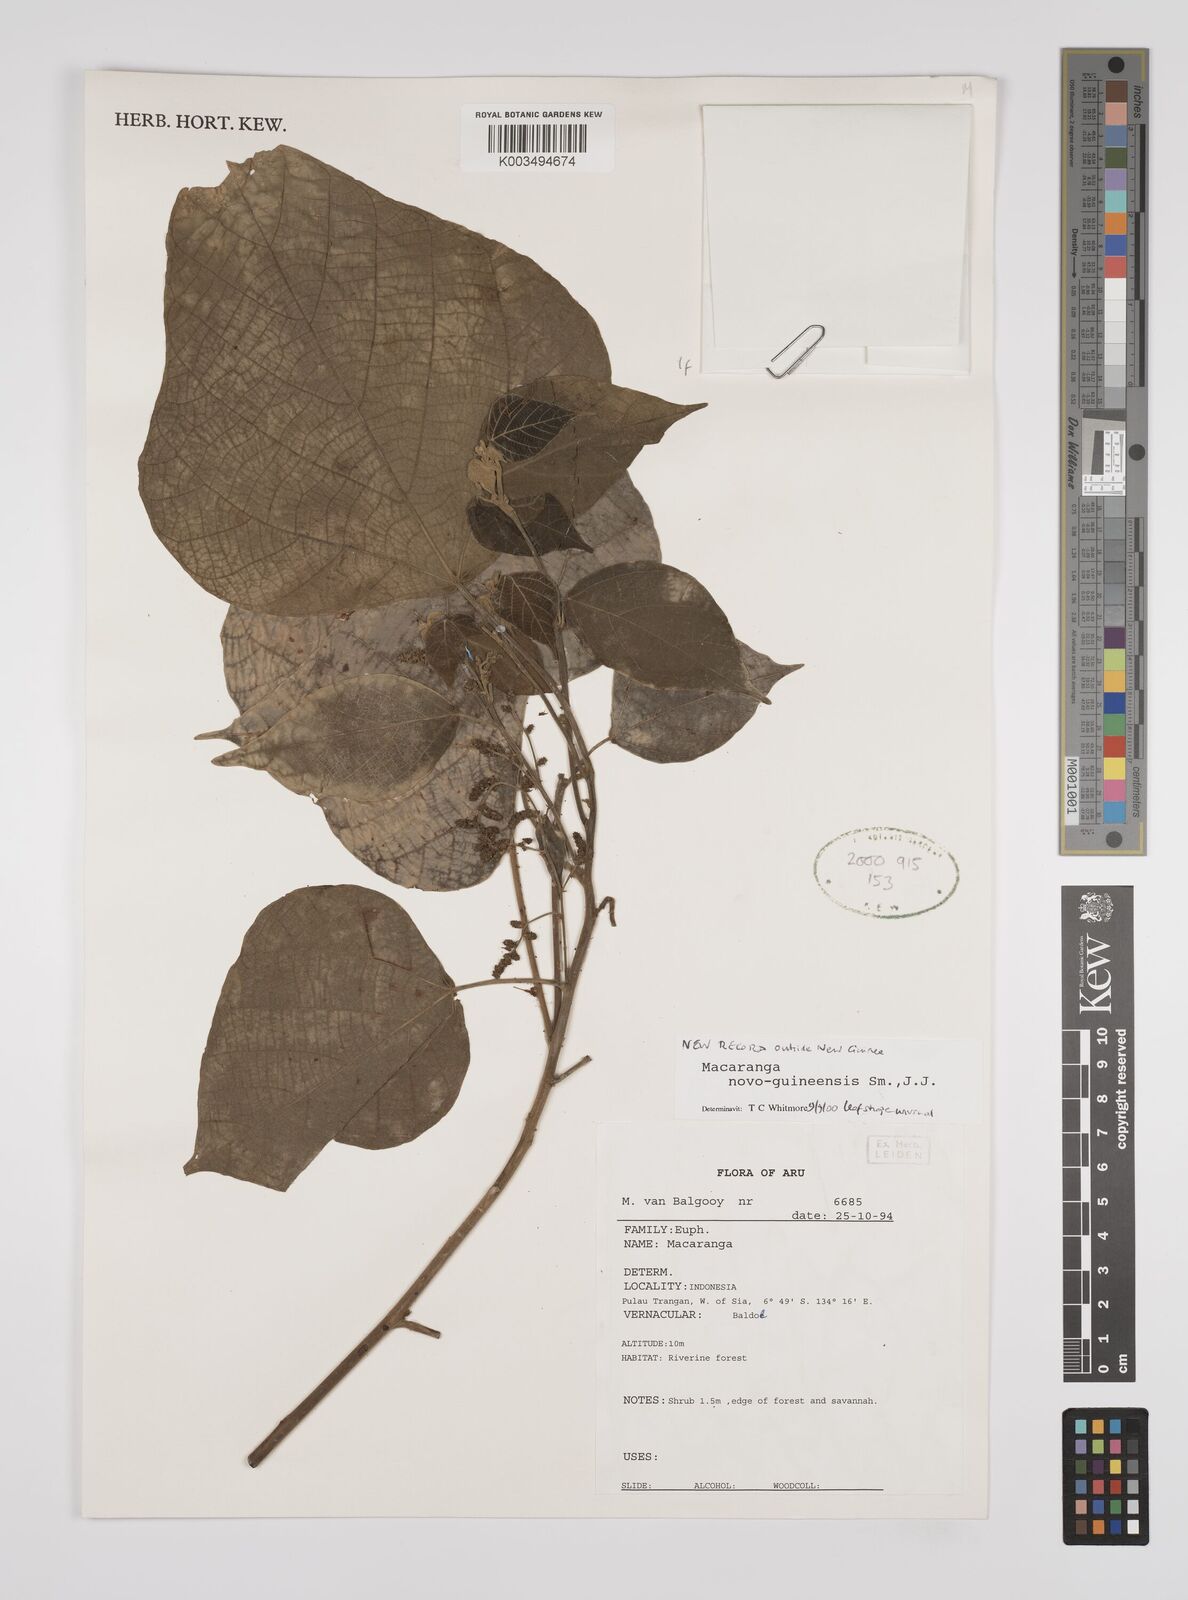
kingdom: Plantae
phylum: Tracheophyta
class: Magnoliopsida
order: Malpighiales
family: Euphorbiaceae
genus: Macaranga
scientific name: Macaranga novoguineensis
